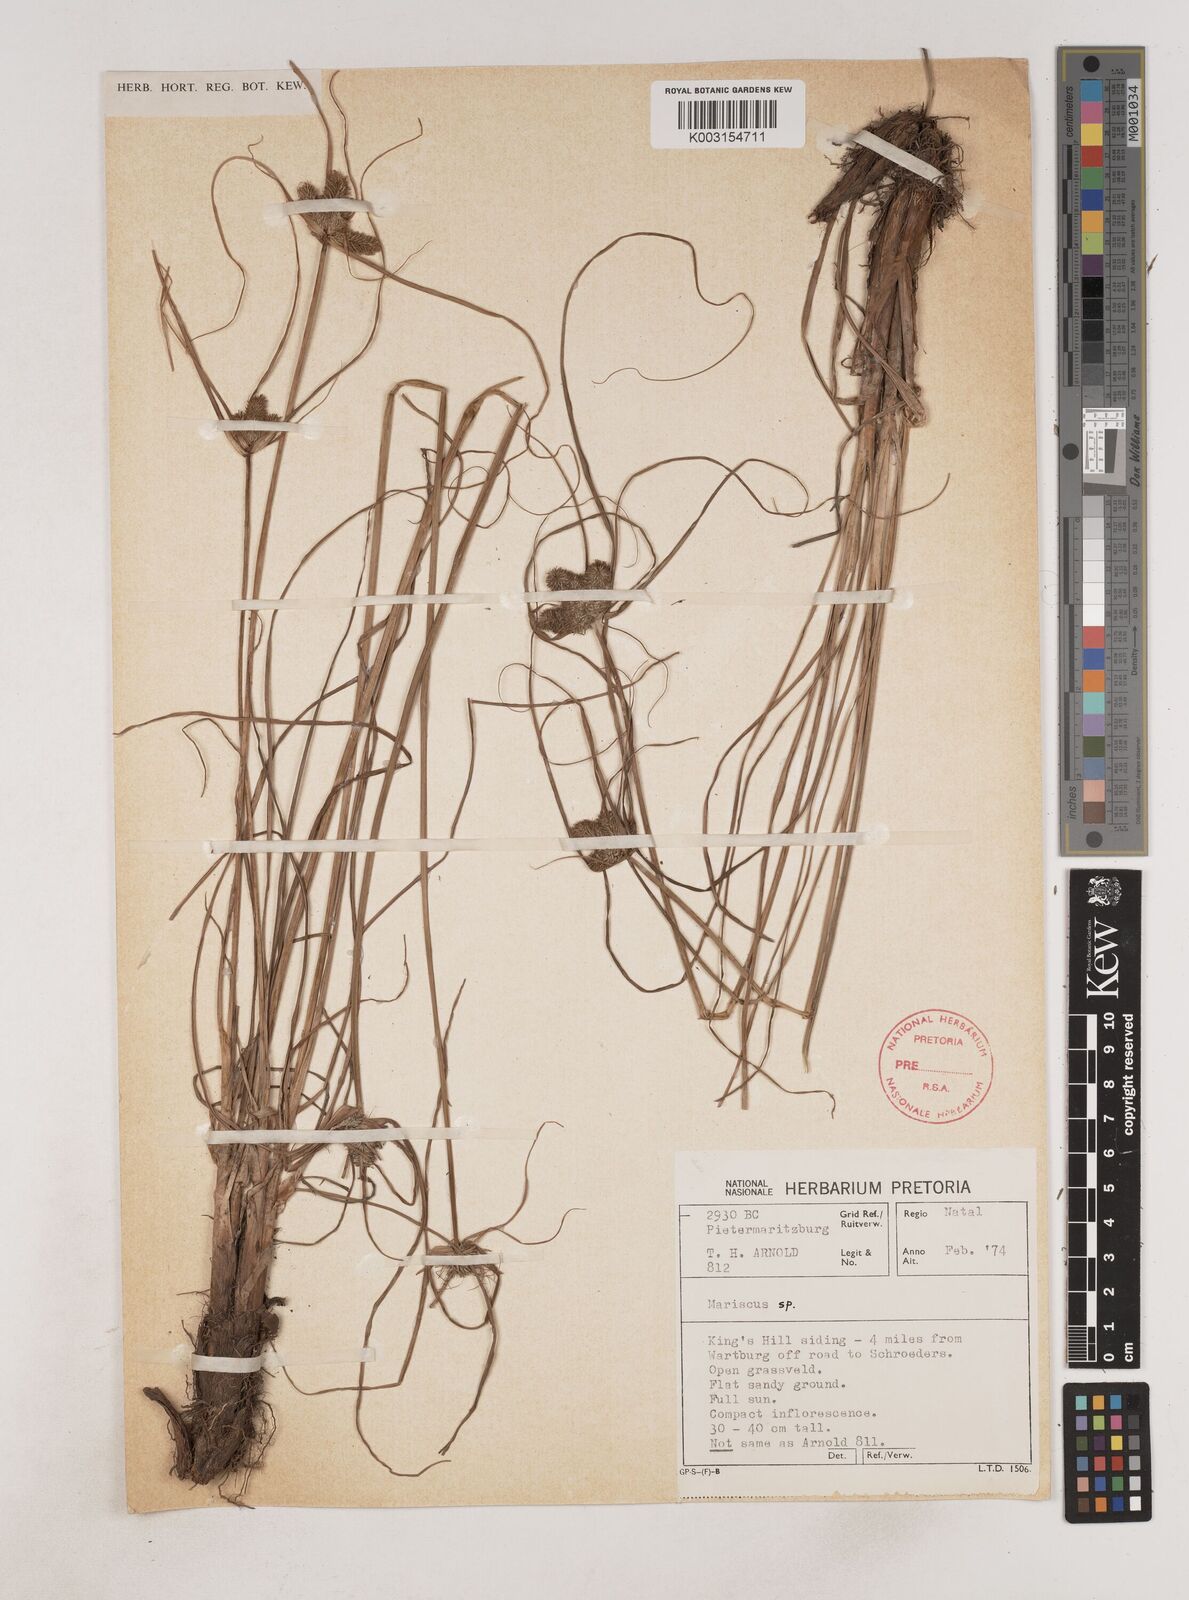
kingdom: Plantae
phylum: Tracheophyta
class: Liliopsida
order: Poales
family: Cyperaceae
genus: Cyperus
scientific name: Cyperus
